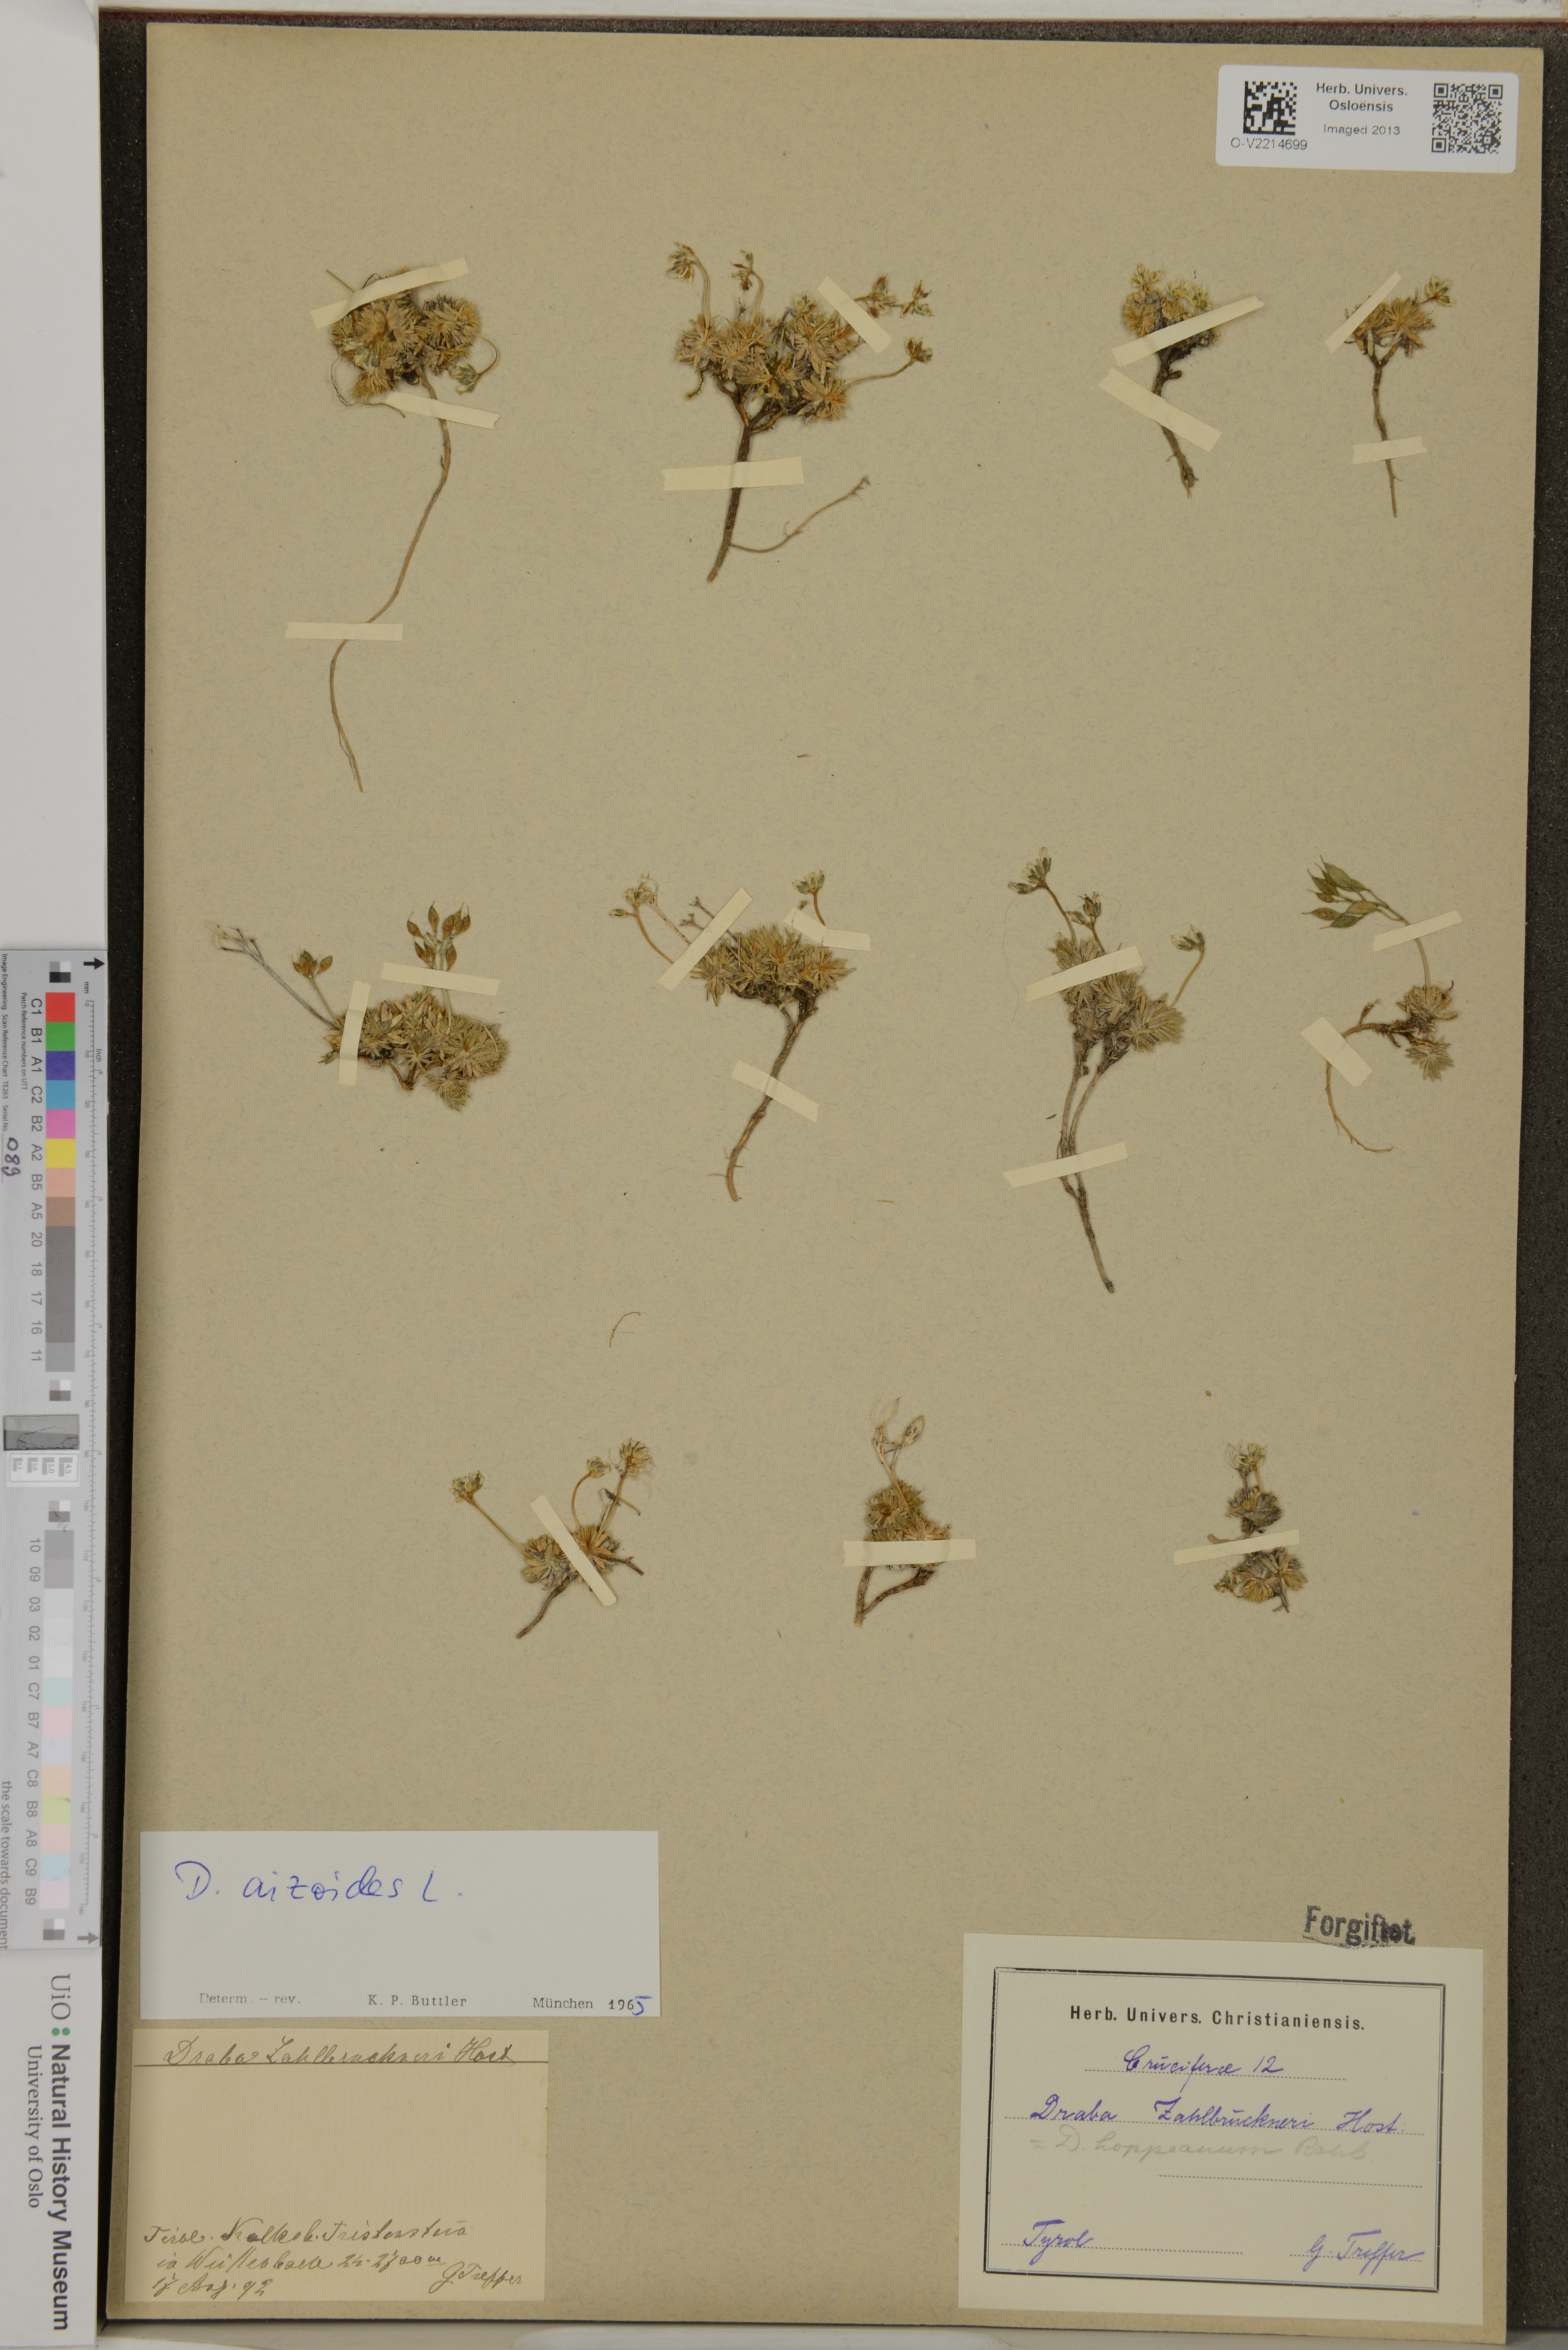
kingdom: Plantae
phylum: Tracheophyta
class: Magnoliopsida
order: Brassicales
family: Brassicaceae
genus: Draba
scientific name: Draba aizoides
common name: Yellow whitlowgrass
